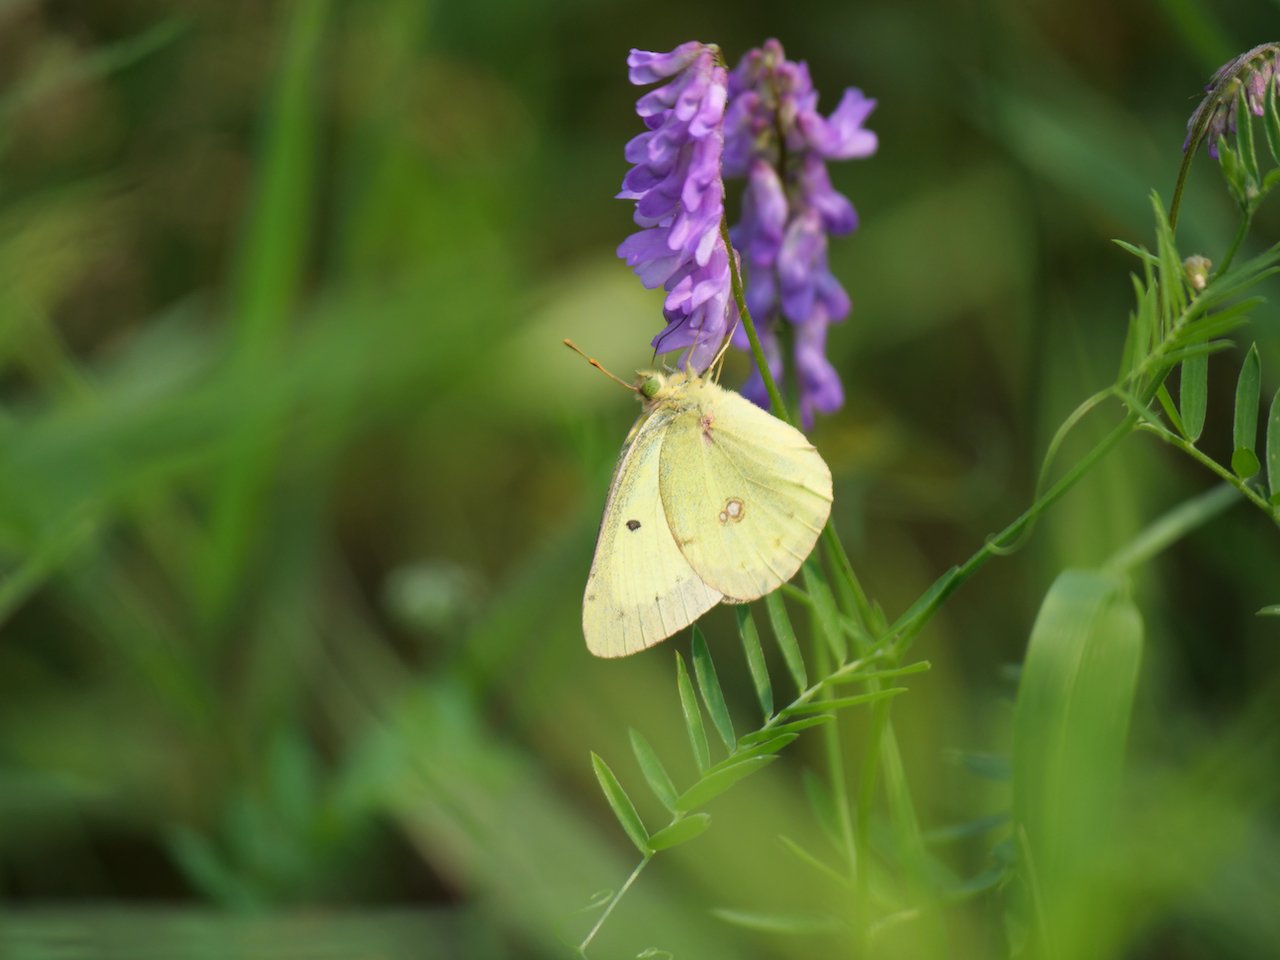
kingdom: Animalia
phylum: Arthropoda
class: Insecta
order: Lepidoptera
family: Pieridae
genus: Colias
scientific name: Colias philodice
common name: Clouded Sulphur
